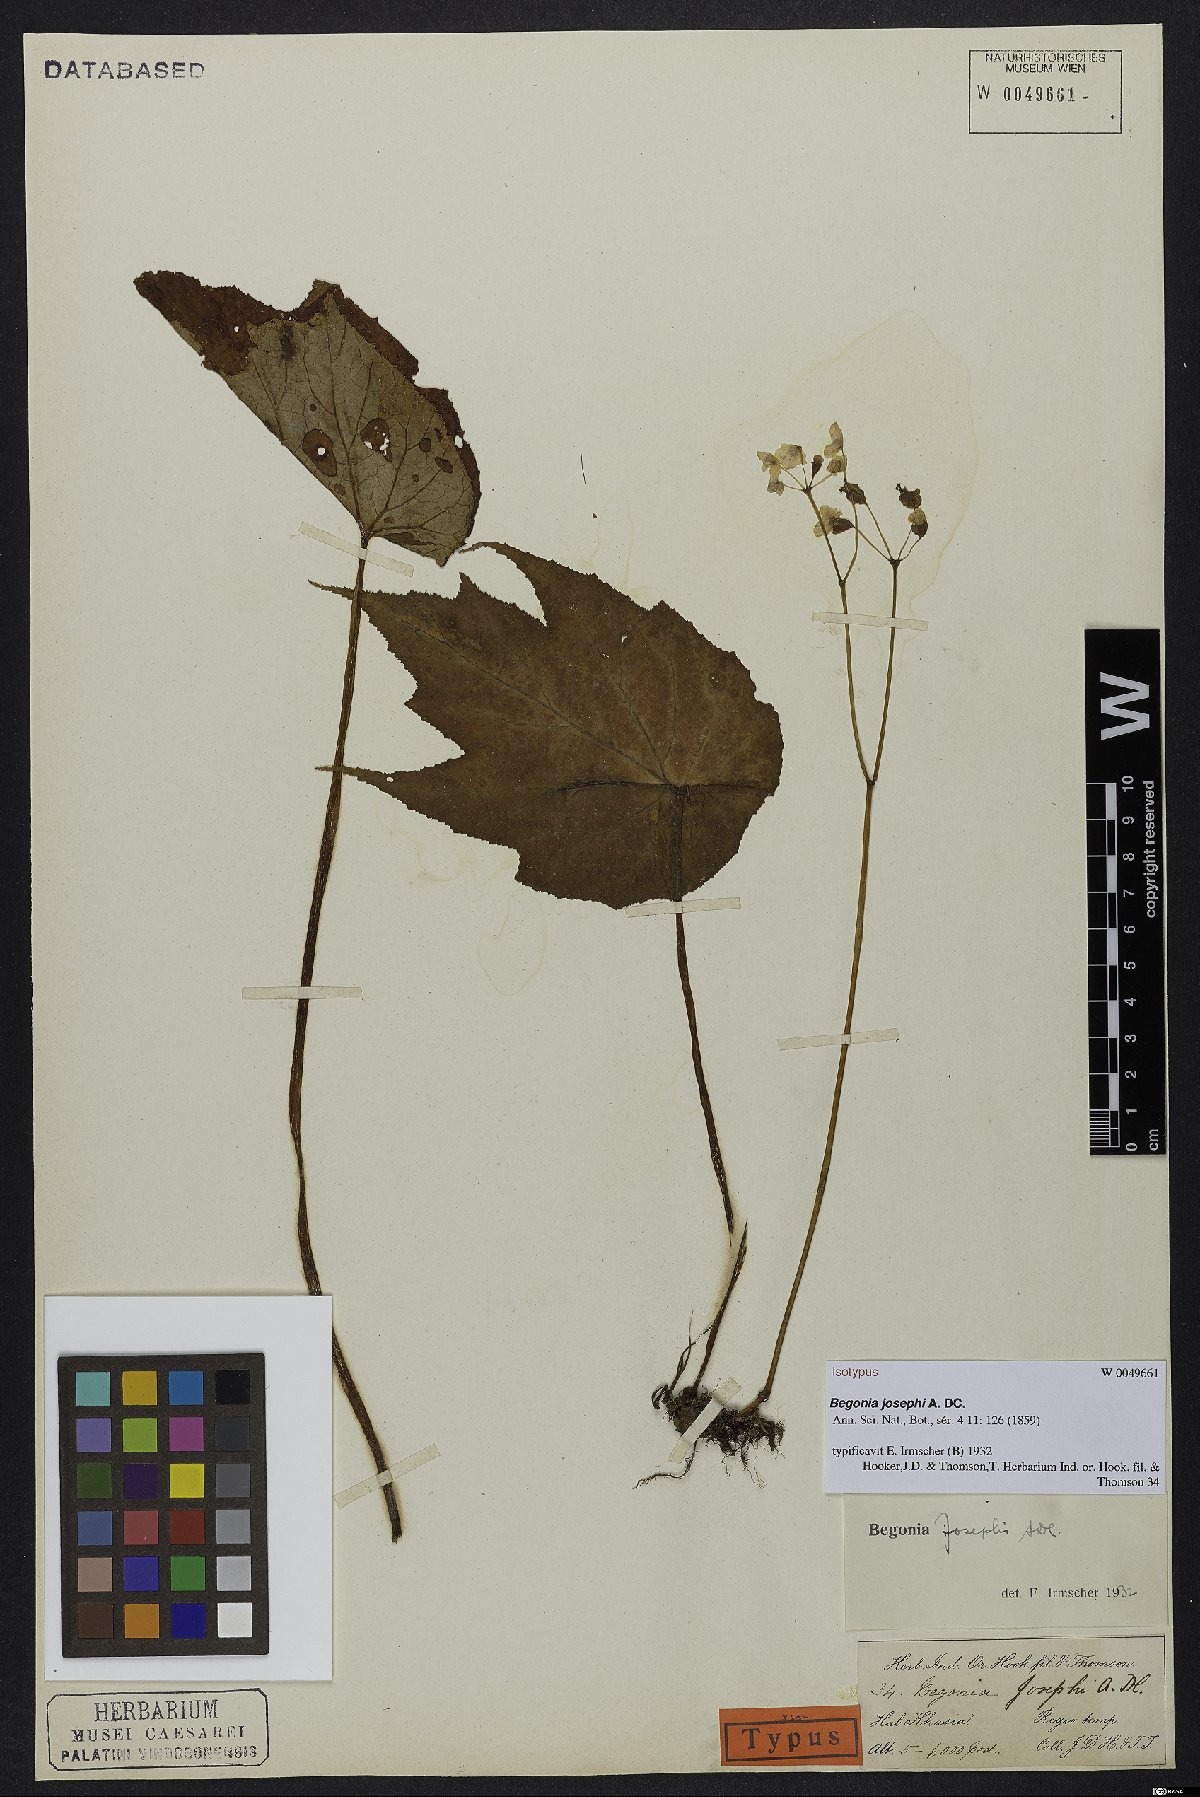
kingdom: Plantae
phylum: Tracheophyta
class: Magnoliopsida
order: Cucurbitales
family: Begoniaceae
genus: Begonia
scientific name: Begonia josephi
